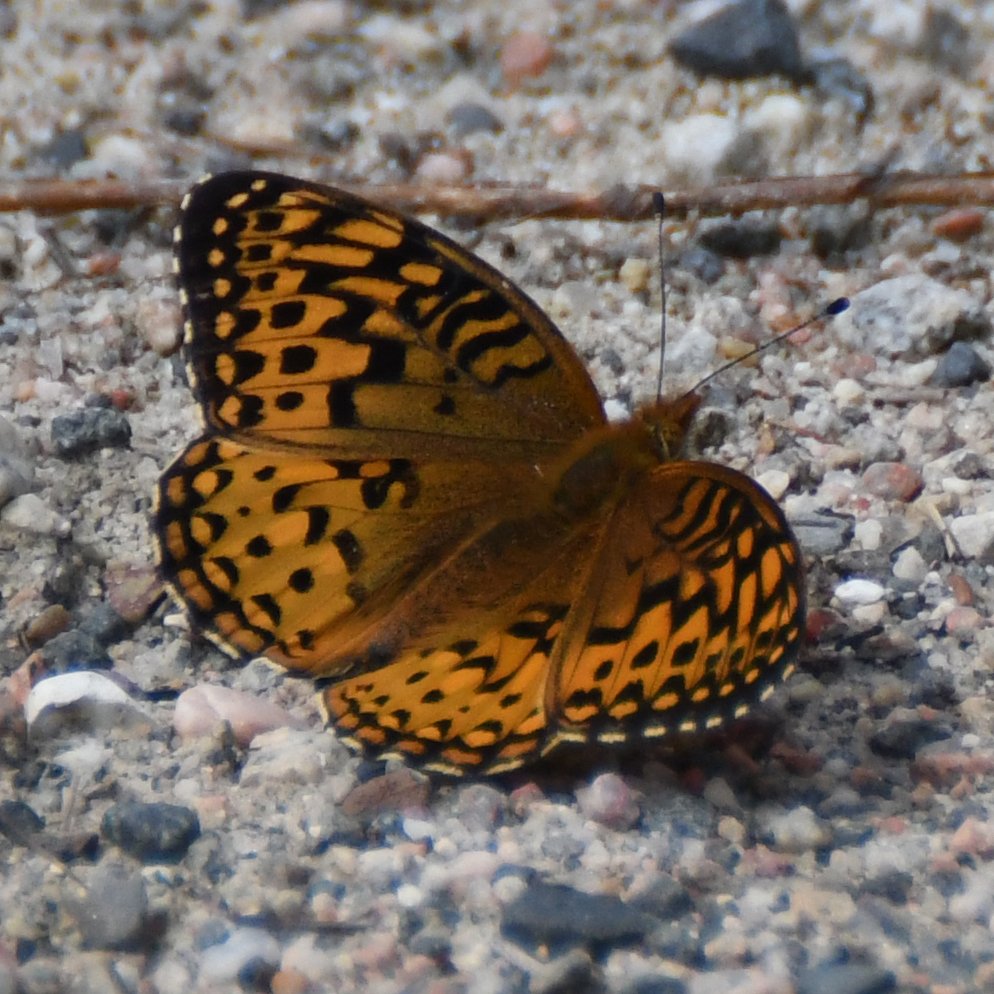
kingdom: Animalia
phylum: Arthropoda
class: Insecta
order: Lepidoptera
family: Nymphalidae
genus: Speyeria
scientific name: Speyeria aphrodite
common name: Aphrodite Fritillary
